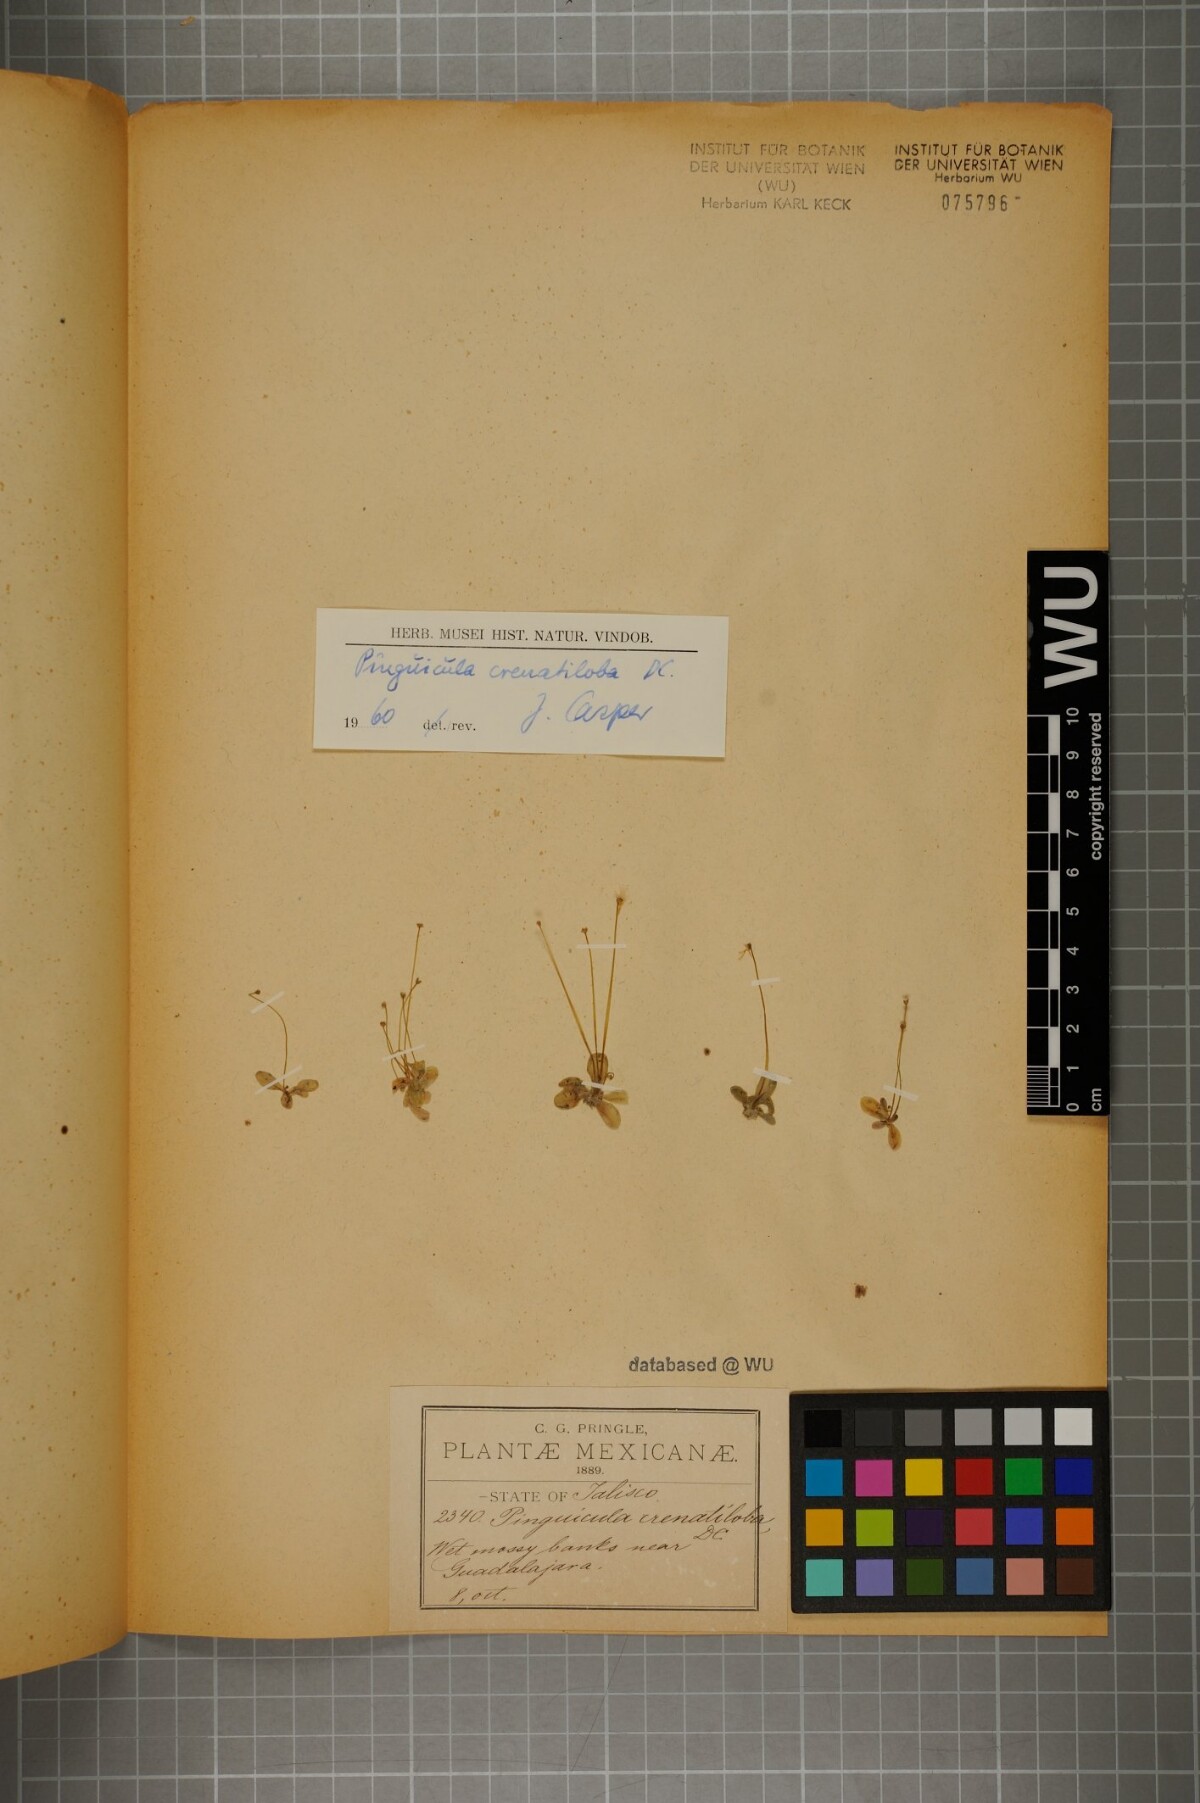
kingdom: Plantae
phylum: Tracheophyta
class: Magnoliopsida
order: Lamiales
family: Lentibulariaceae
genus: Pinguicula
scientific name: Pinguicula crenatiloba
